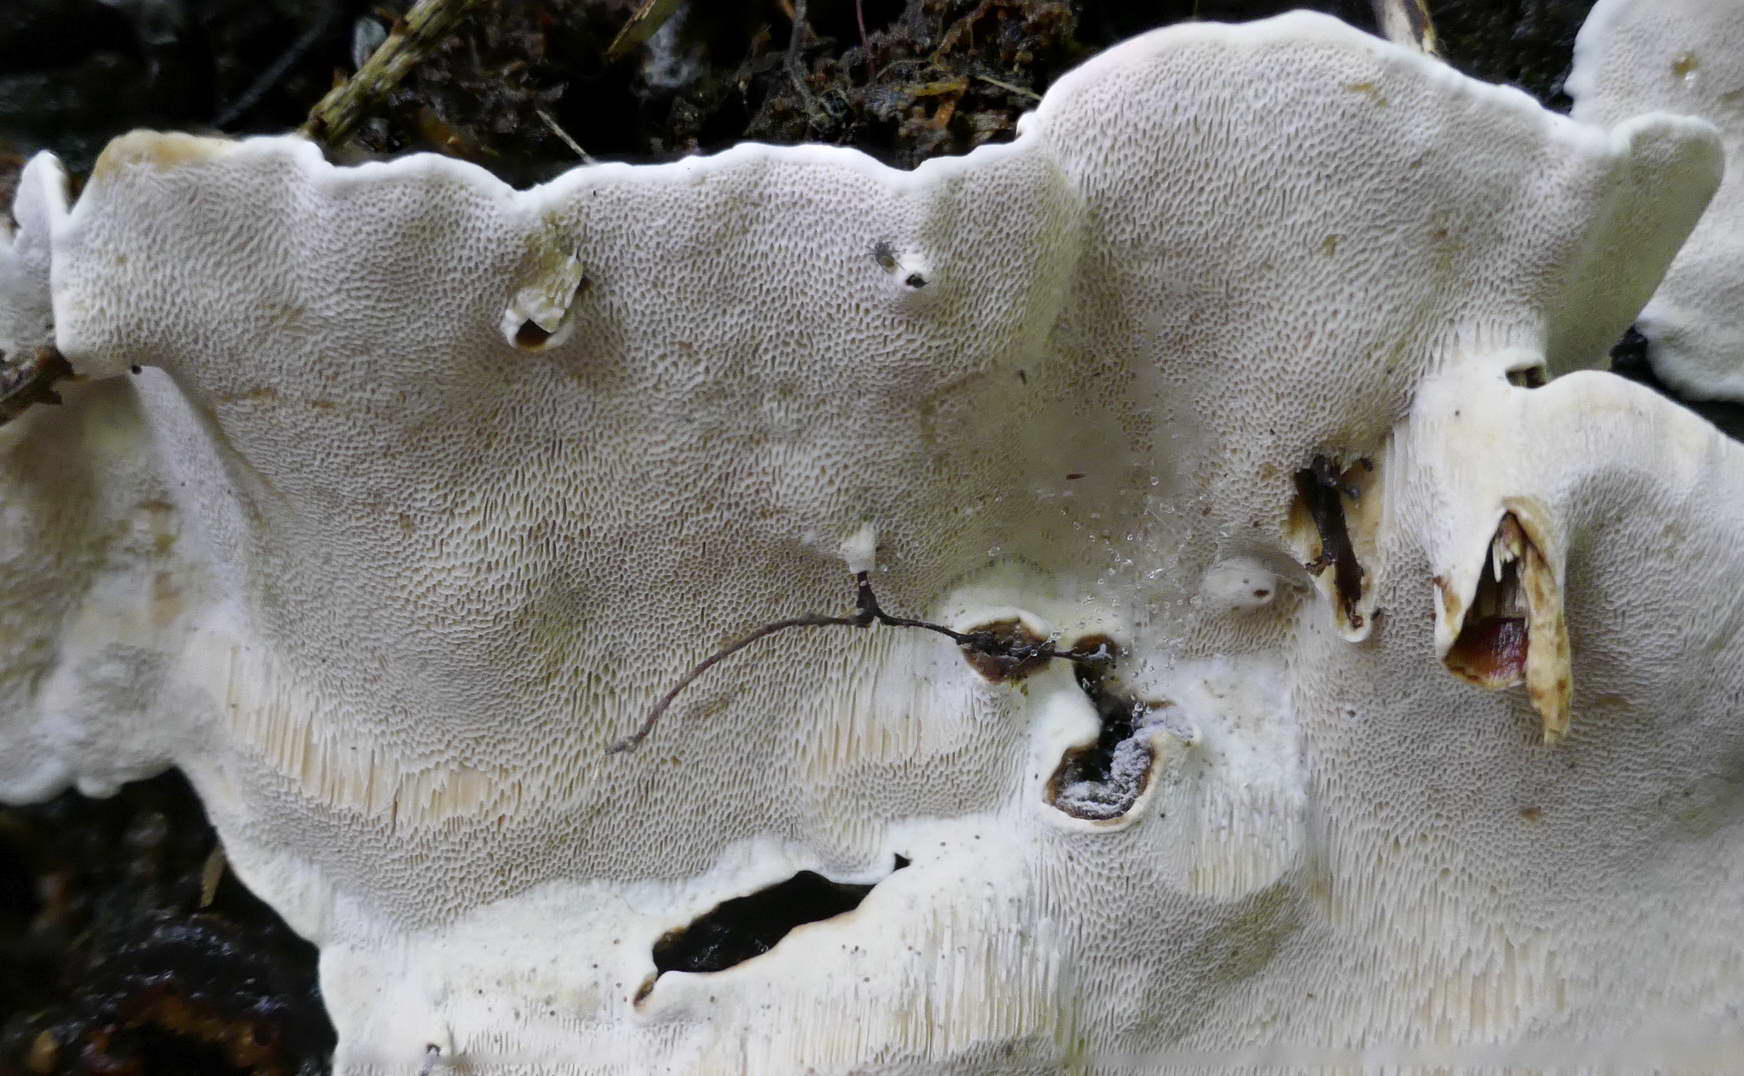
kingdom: Fungi
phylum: Basidiomycota
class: Agaricomycetes
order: Russulales
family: Bondarzewiaceae
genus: Heterobasidion
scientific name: Heterobasidion parviporum
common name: småporet rodfordærver
